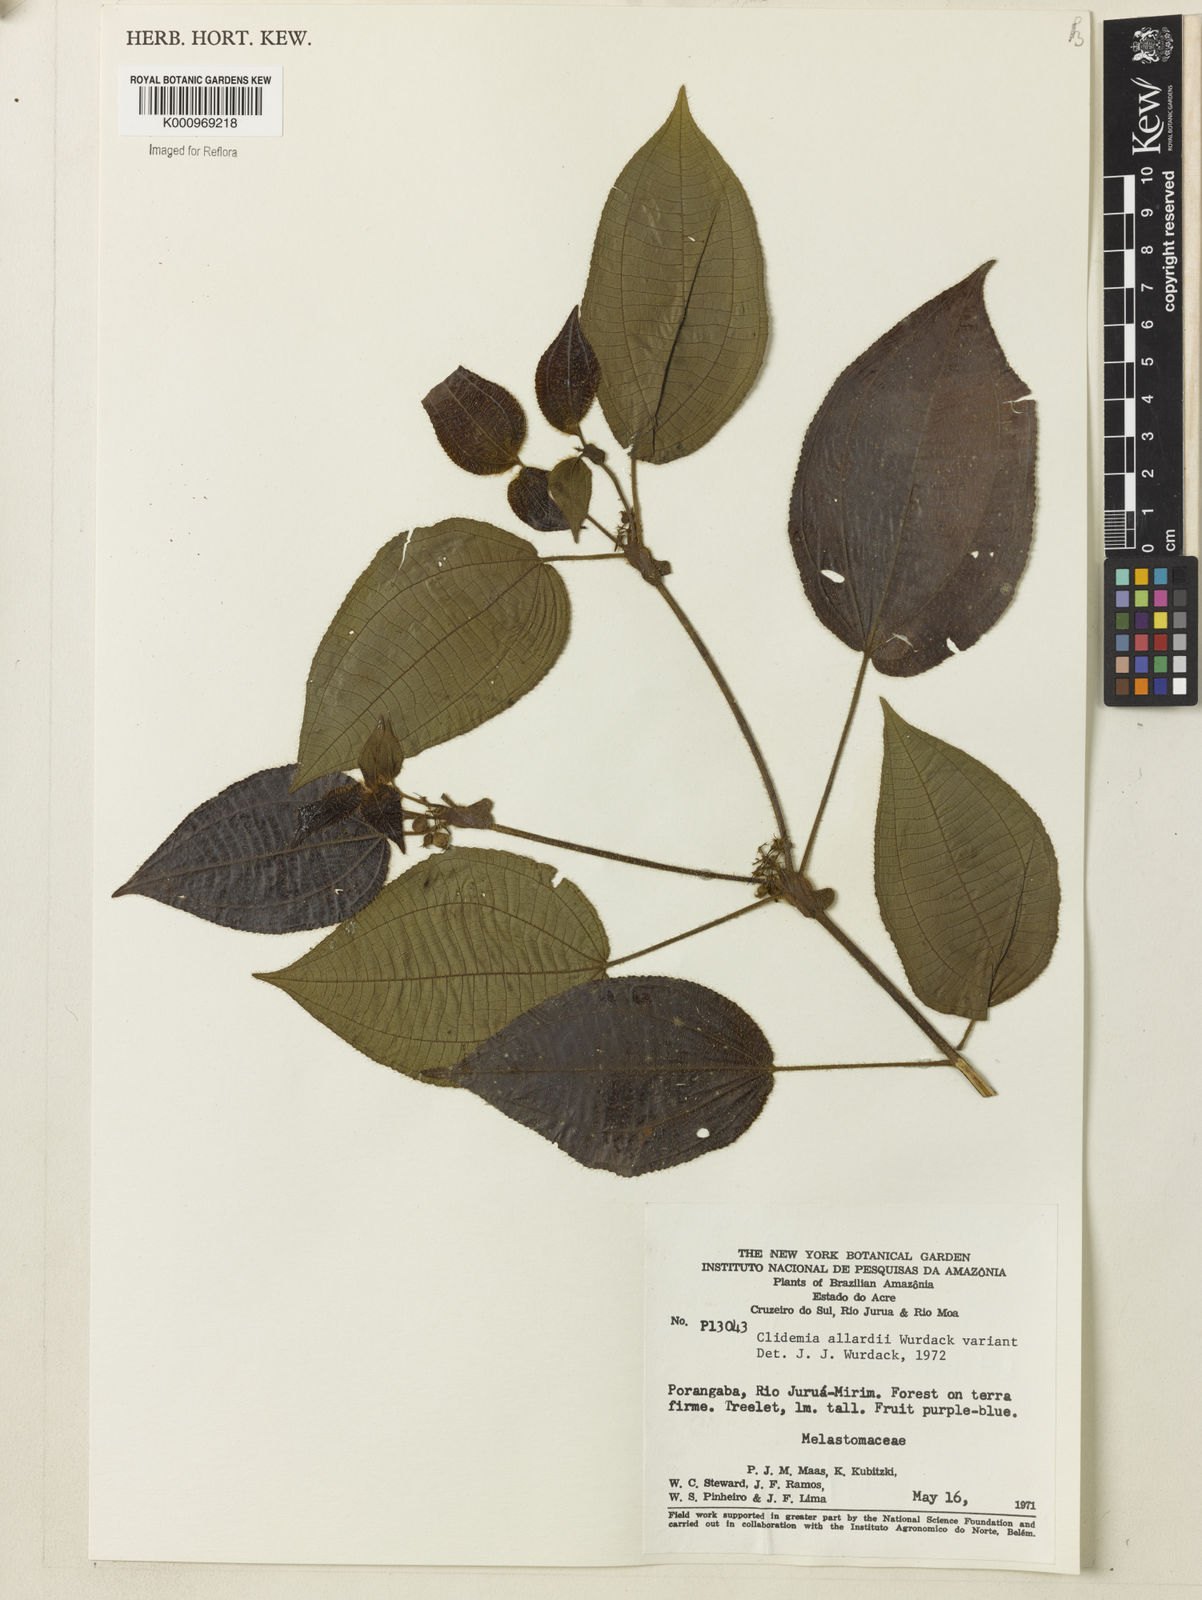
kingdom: Plantae
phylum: Tracheophyta
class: Magnoliopsida
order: Myrtales
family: Melastomataceae
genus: Miconia
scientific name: Miconia allardii
